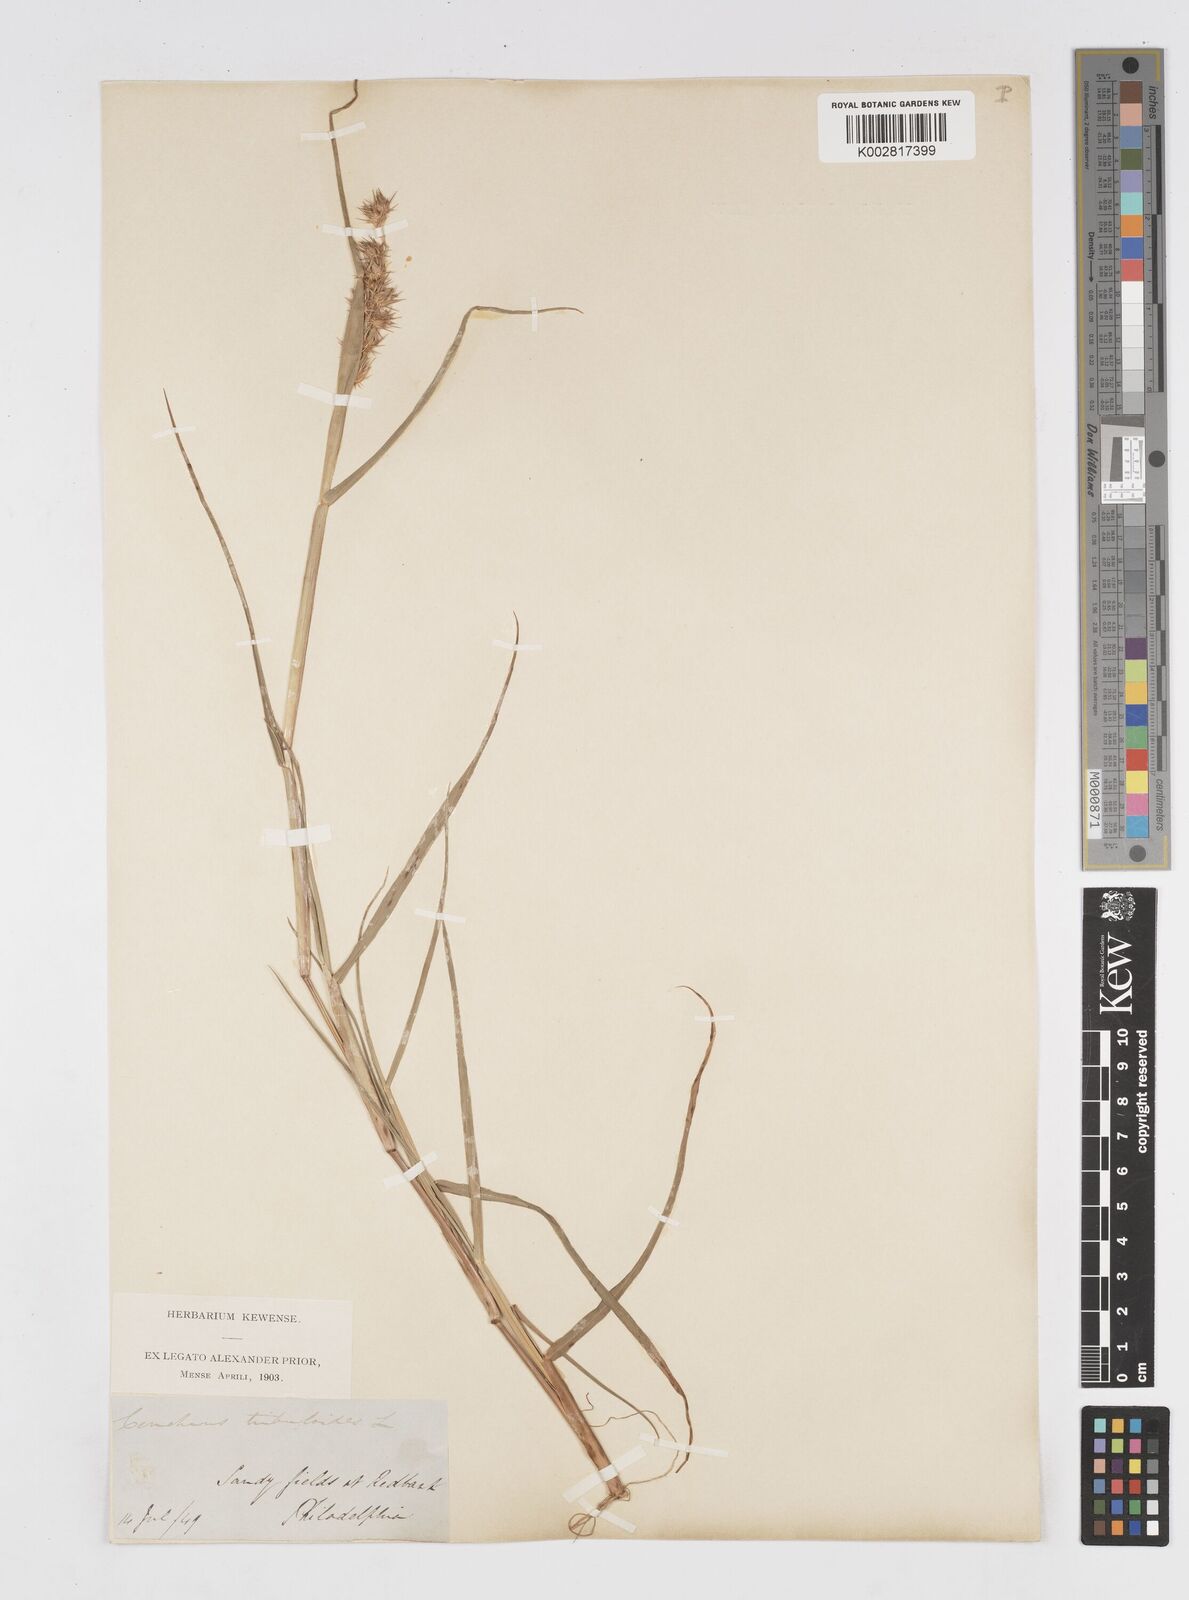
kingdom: Plantae
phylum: Tracheophyta
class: Liliopsida
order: Poales
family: Poaceae
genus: Cenchrus
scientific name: Cenchrus longispinus
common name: Mat sandbur
